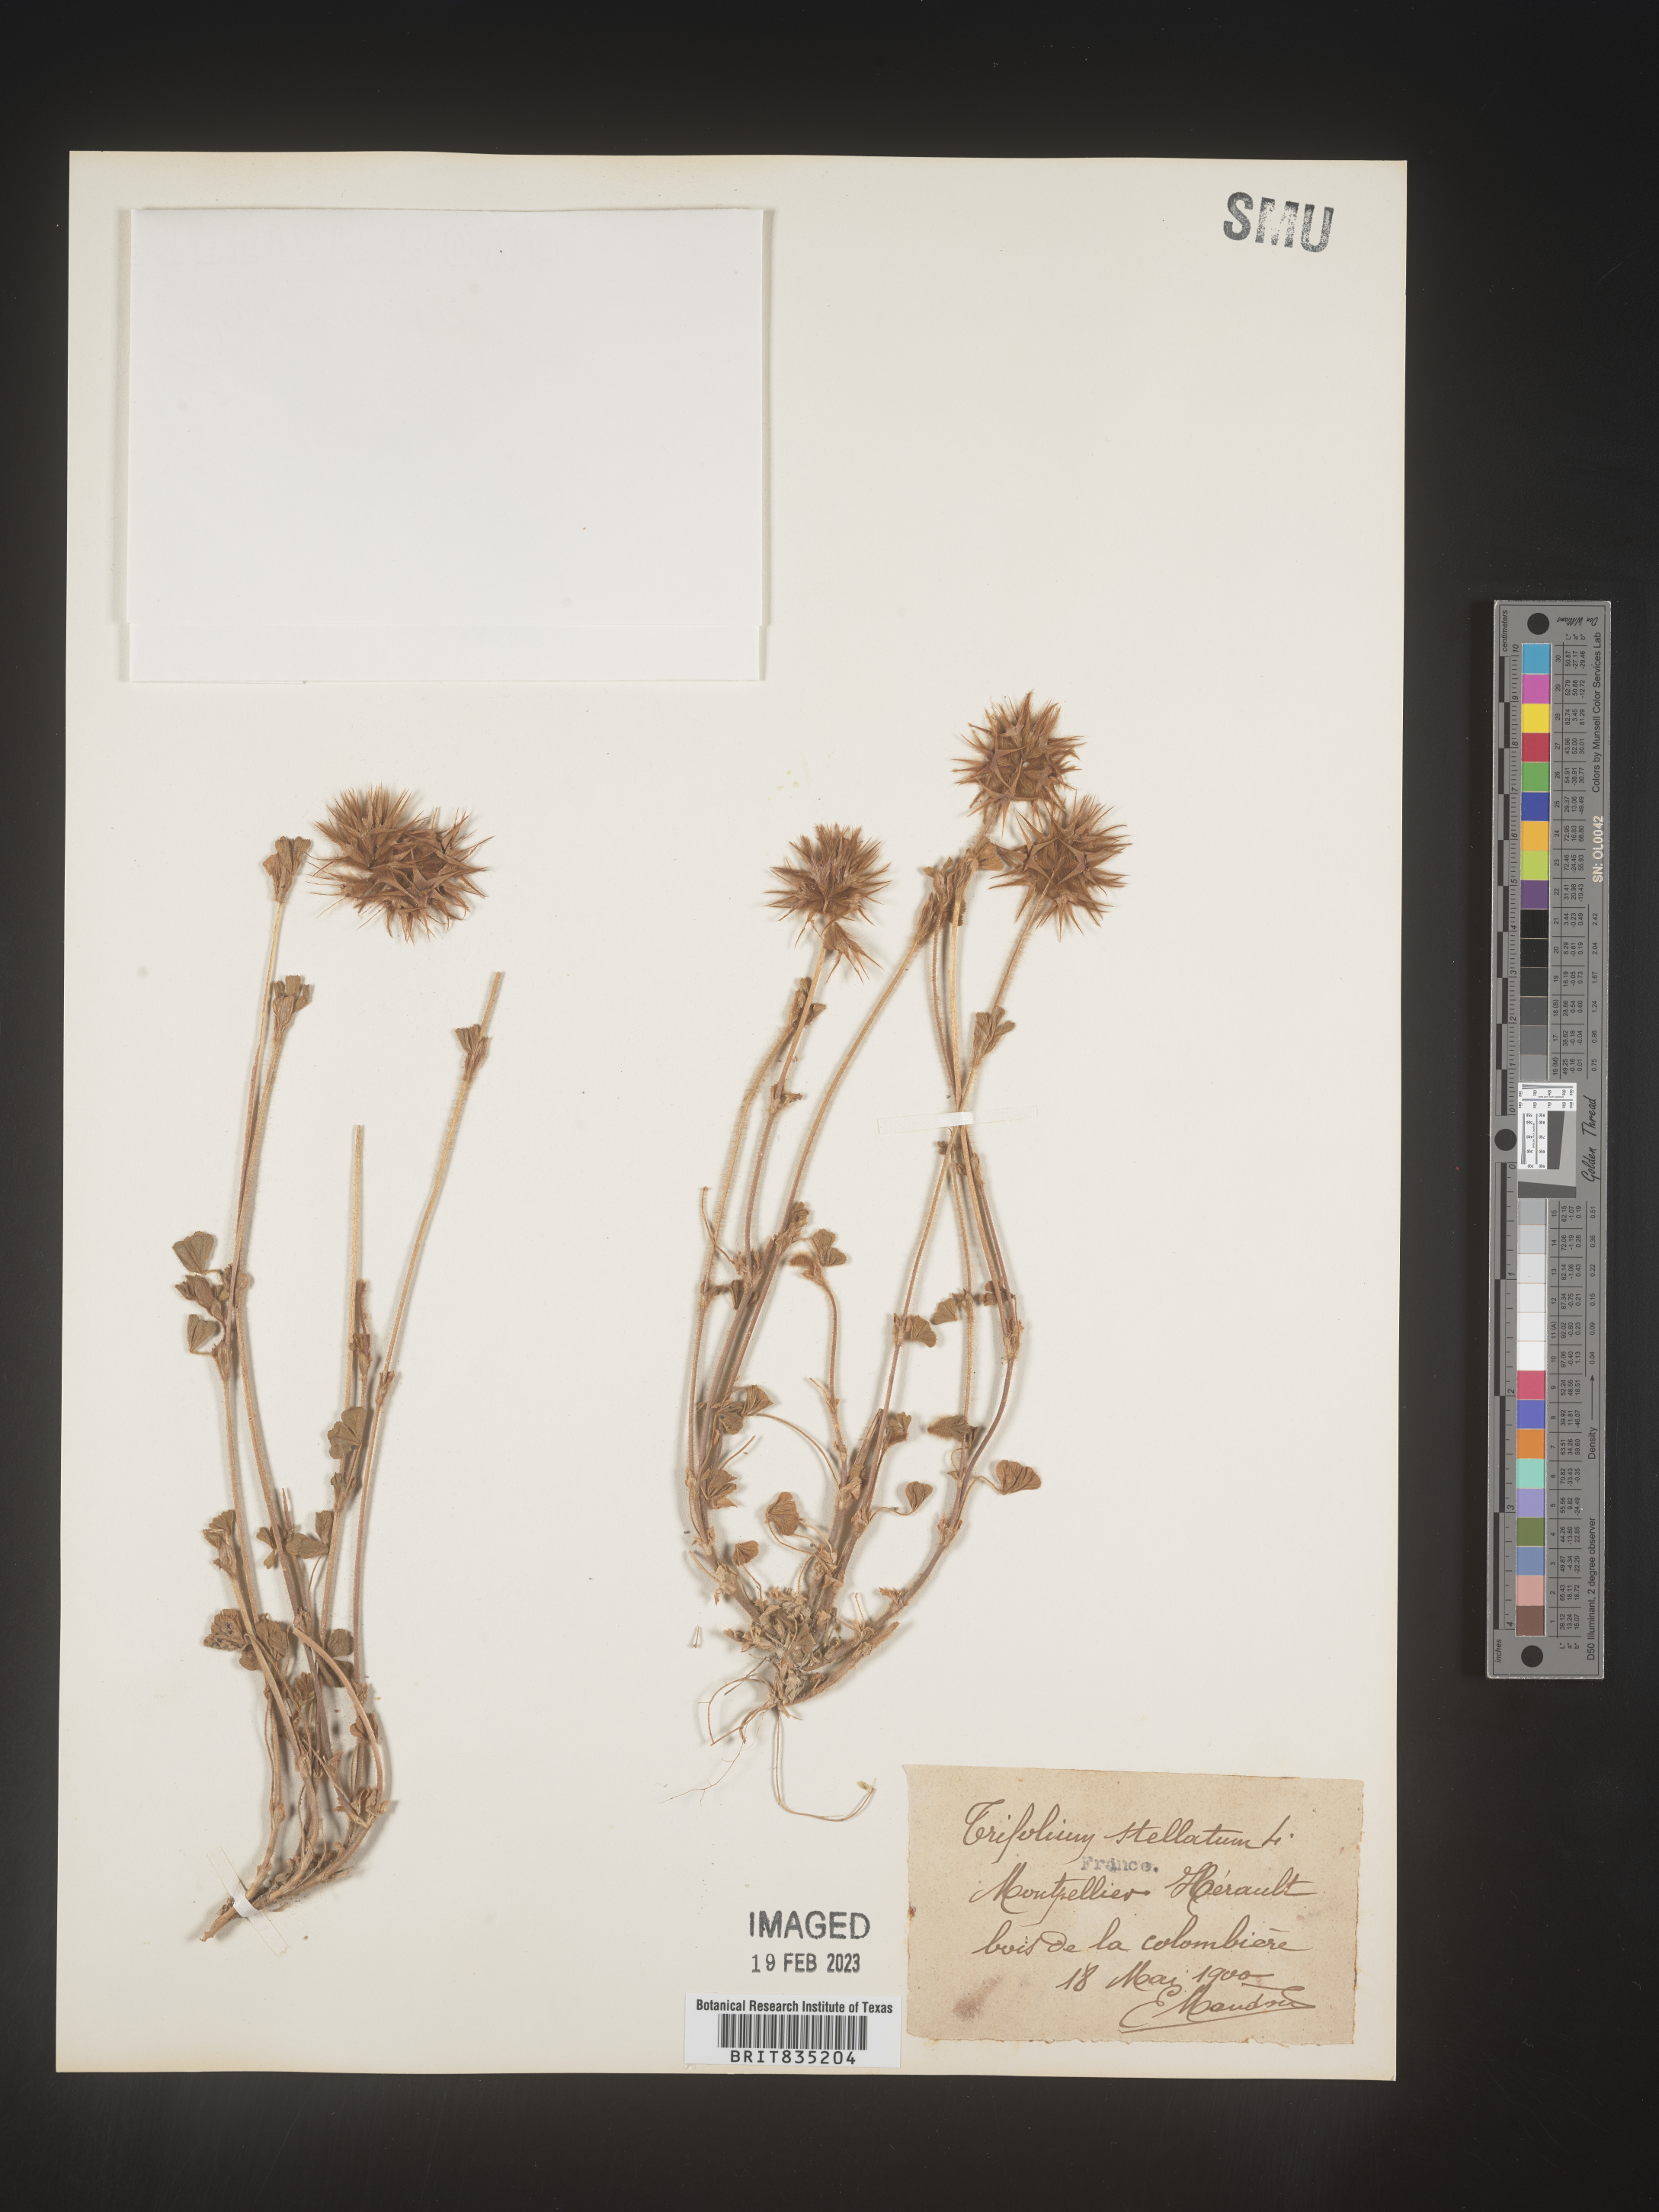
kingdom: Plantae
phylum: Tracheophyta
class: Magnoliopsida
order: Fabales
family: Fabaceae
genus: Trifolium
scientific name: Trifolium
